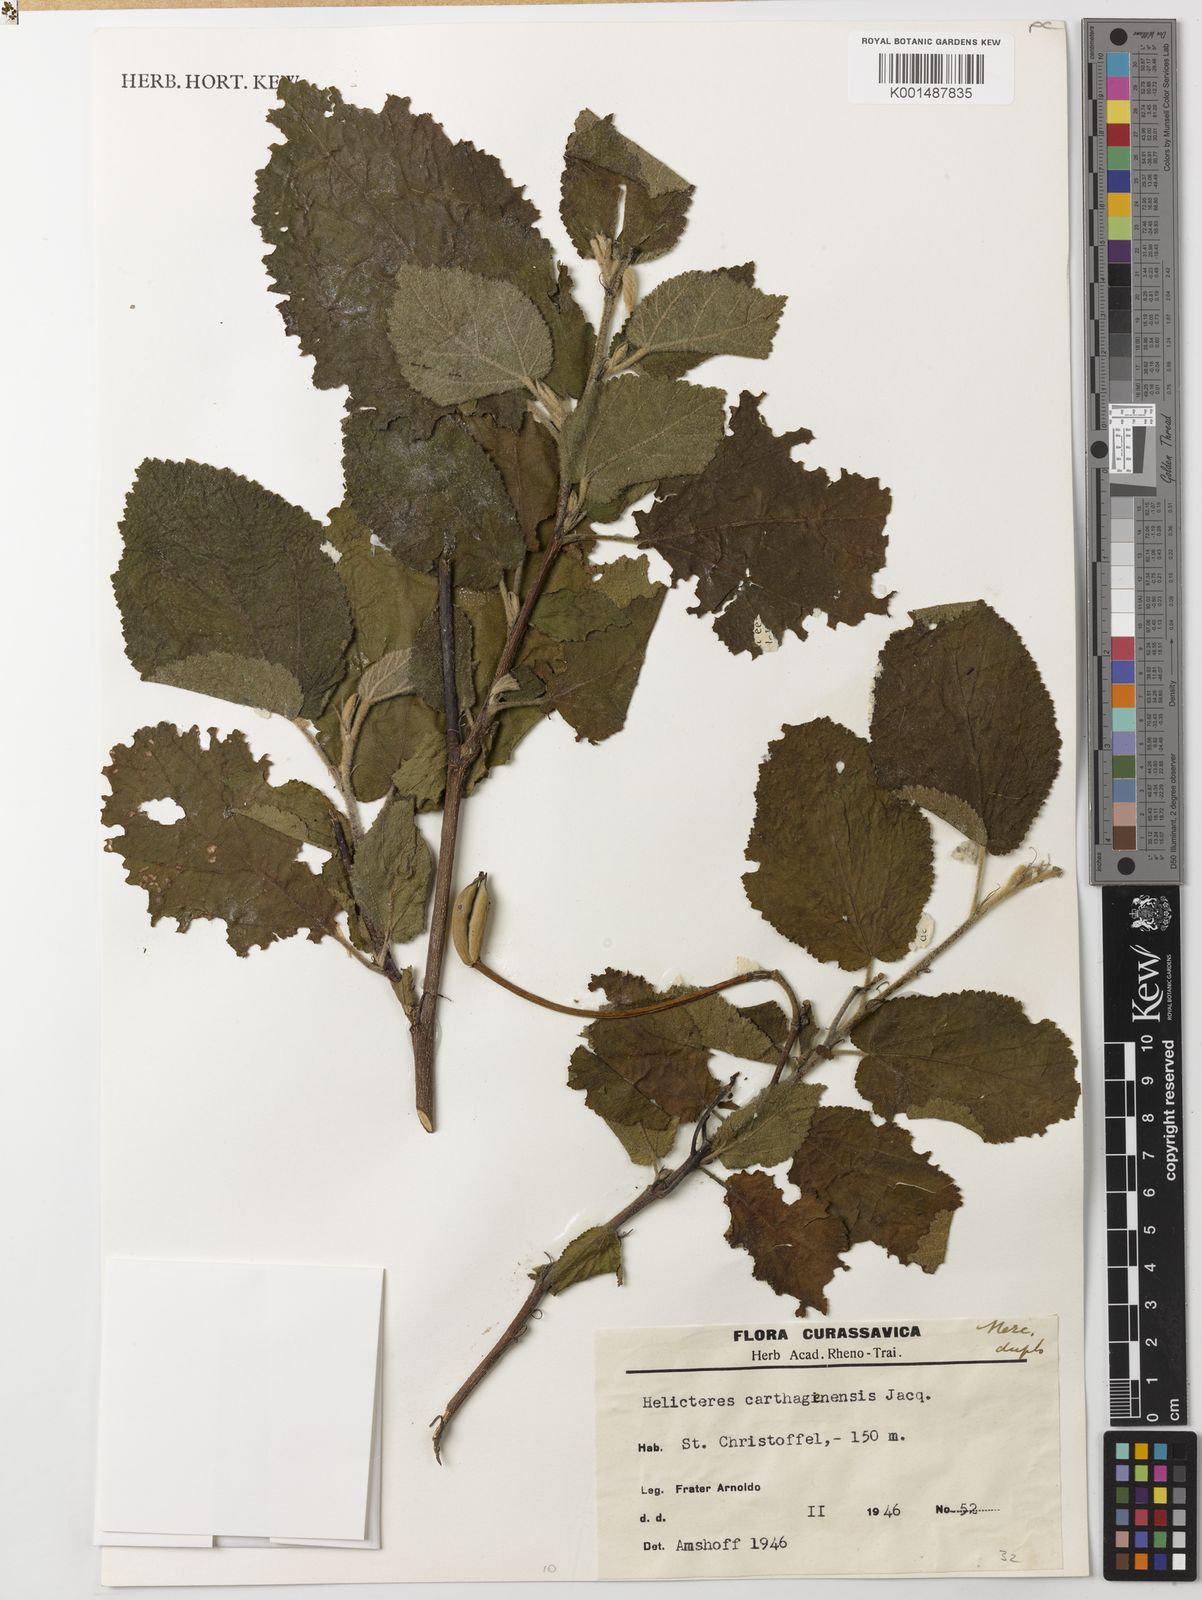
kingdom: Plantae
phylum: Tracheophyta
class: Magnoliopsida
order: Malvales
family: Malvaceae
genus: Helicteres
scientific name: Helicteres carthagenensis
